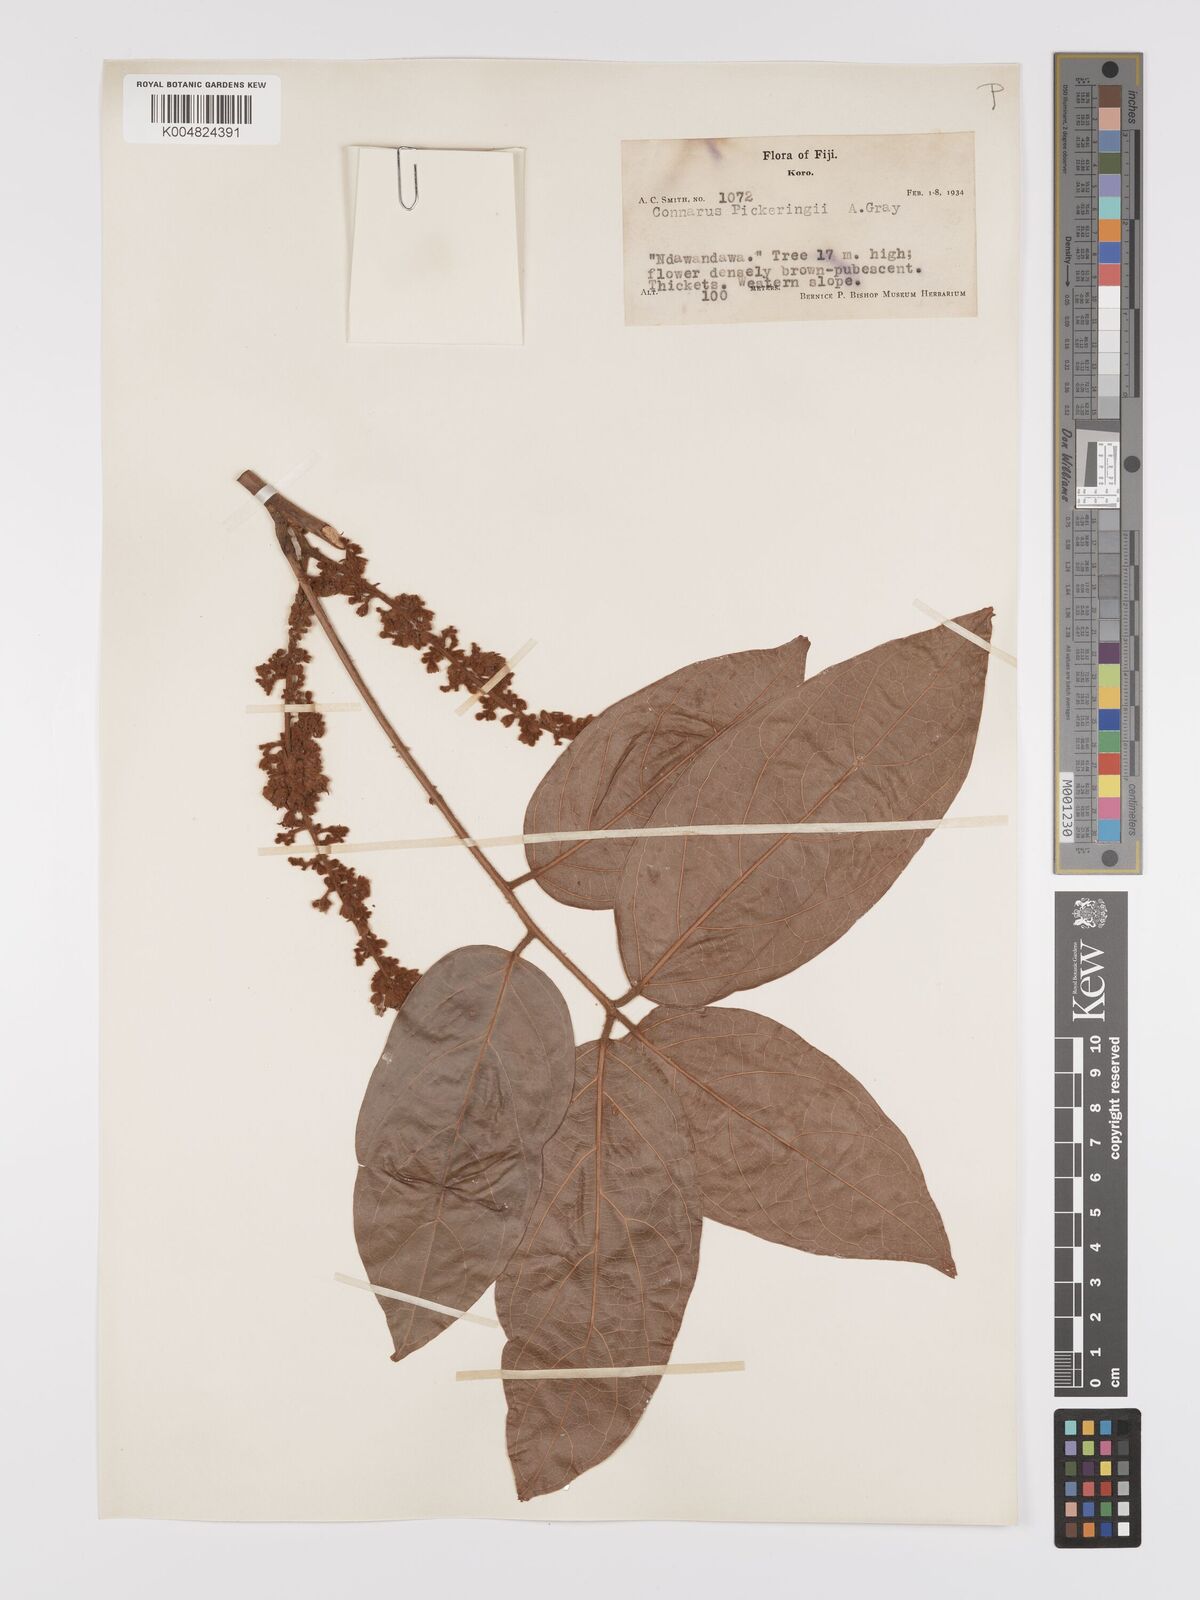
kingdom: Plantae
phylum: Tracheophyta
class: Magnoliopsida
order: Oxalidales
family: Connaraceae
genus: Connarus
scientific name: Connarus pickeringii
